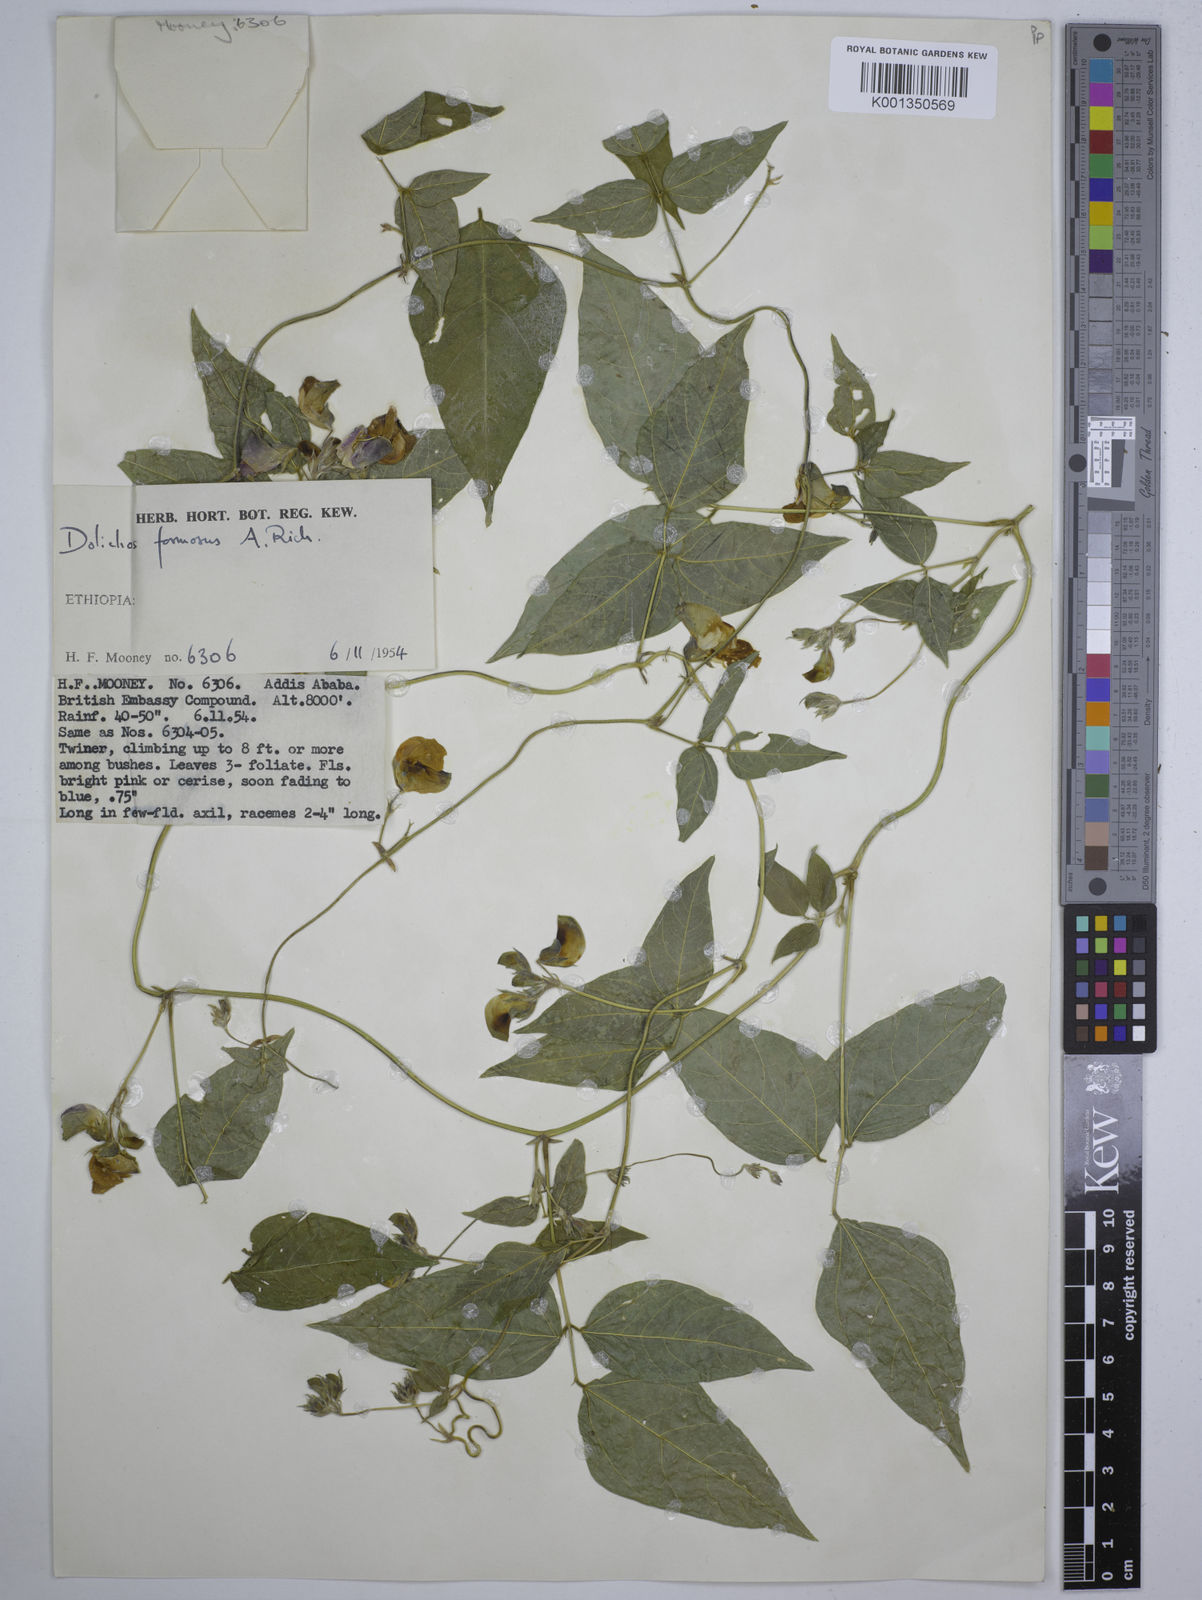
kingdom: Plantae
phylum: Tracheophyta
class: Magnoliopsida
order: Fabales
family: Fabaceae
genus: Dolichos
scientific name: Dolichos
